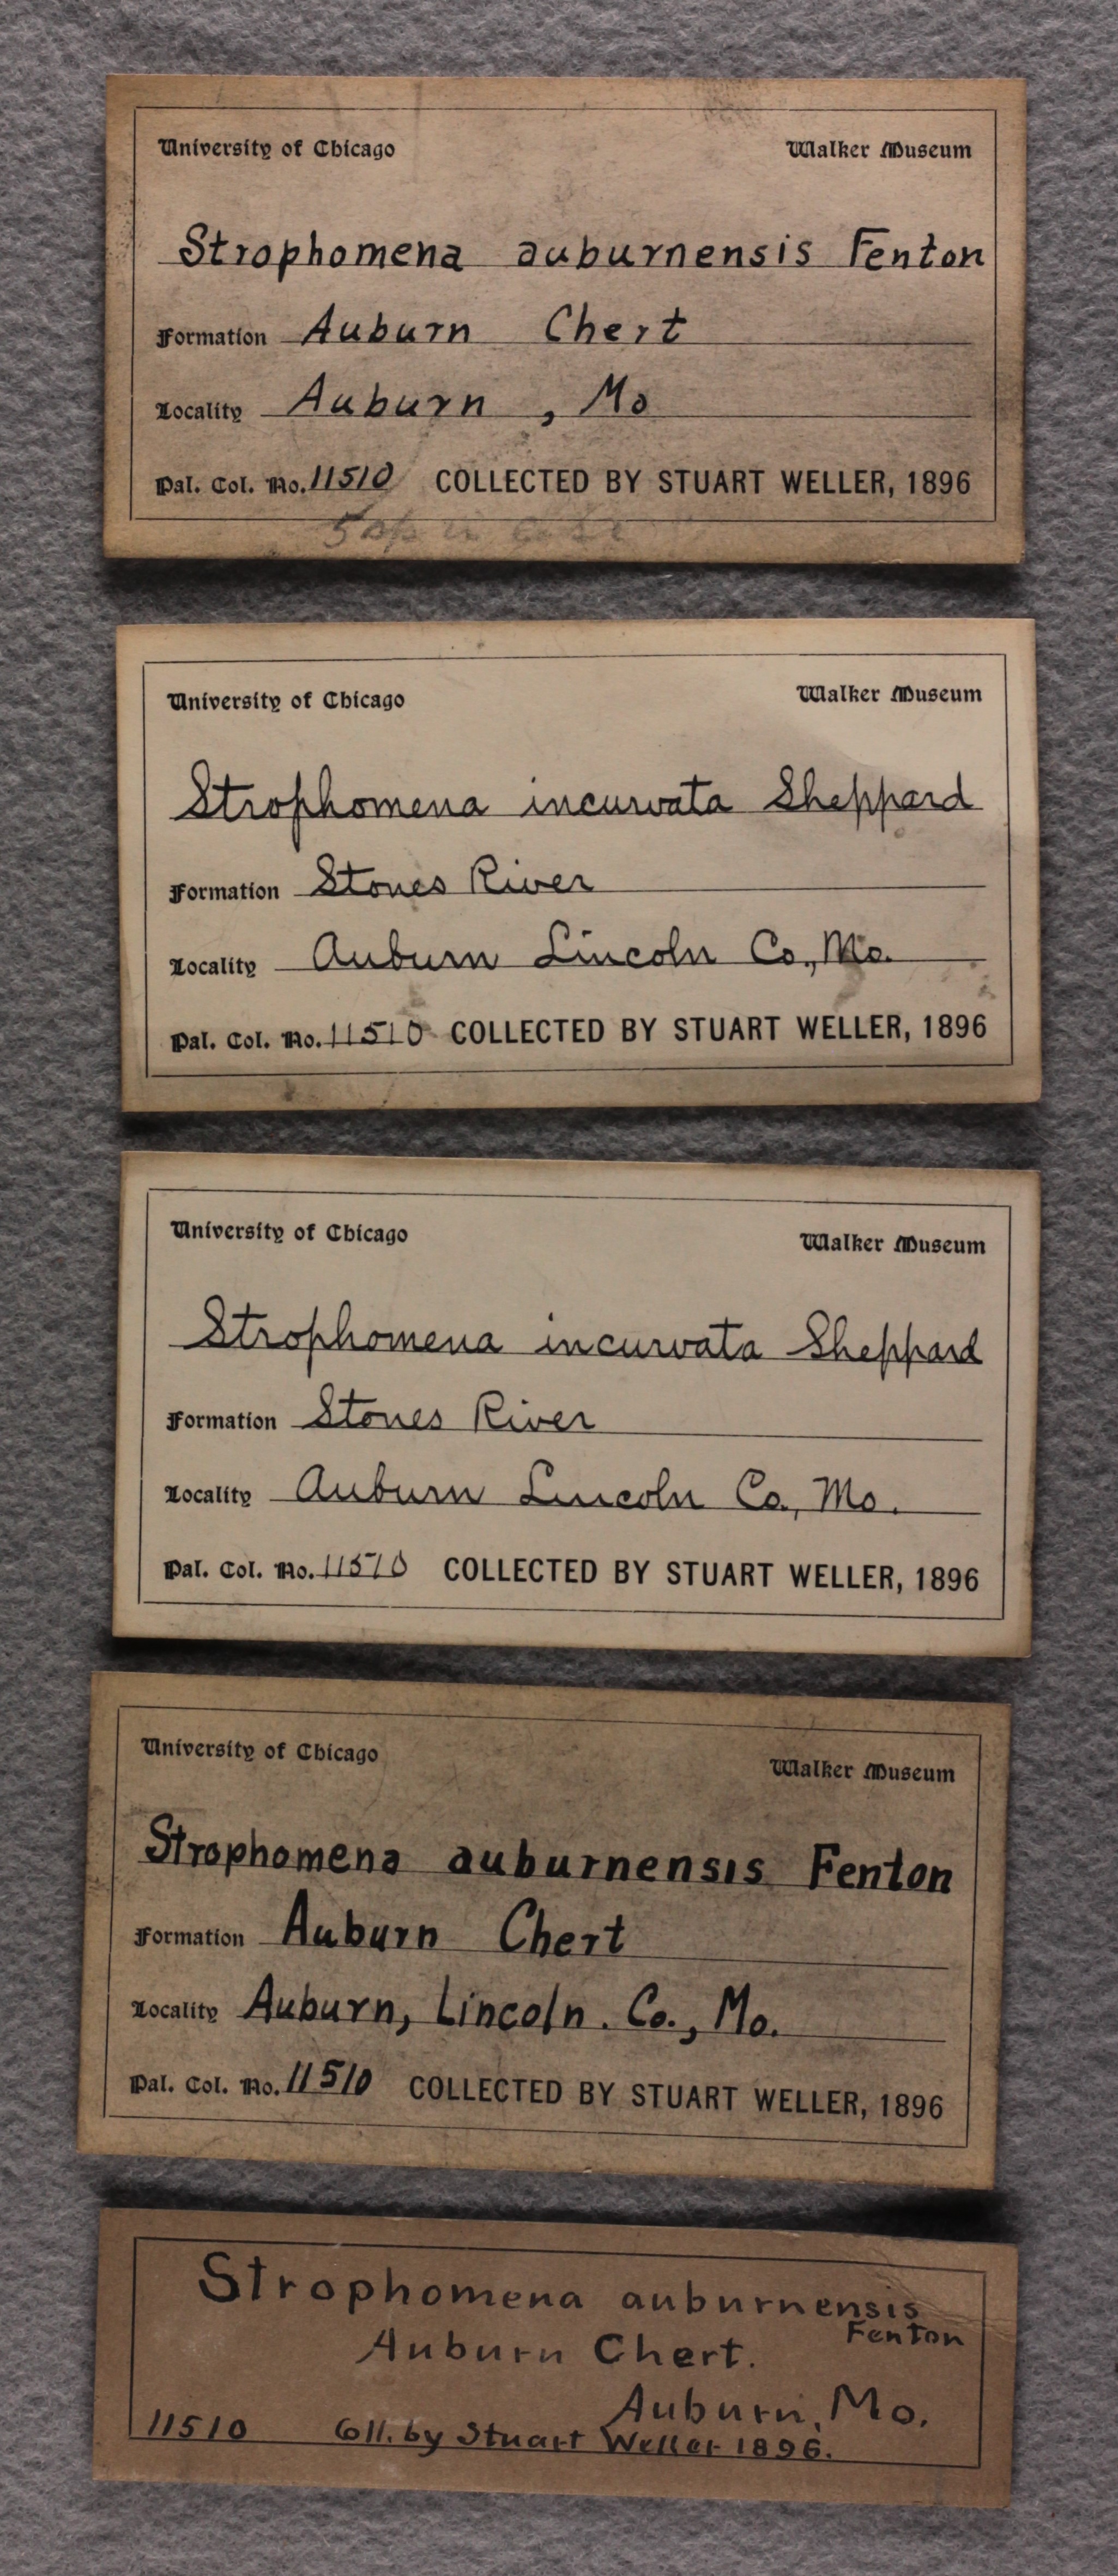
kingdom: Animalia
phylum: Brachiopoda
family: Strophomenidae
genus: Strophomena
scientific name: Strophomena auburnensis
